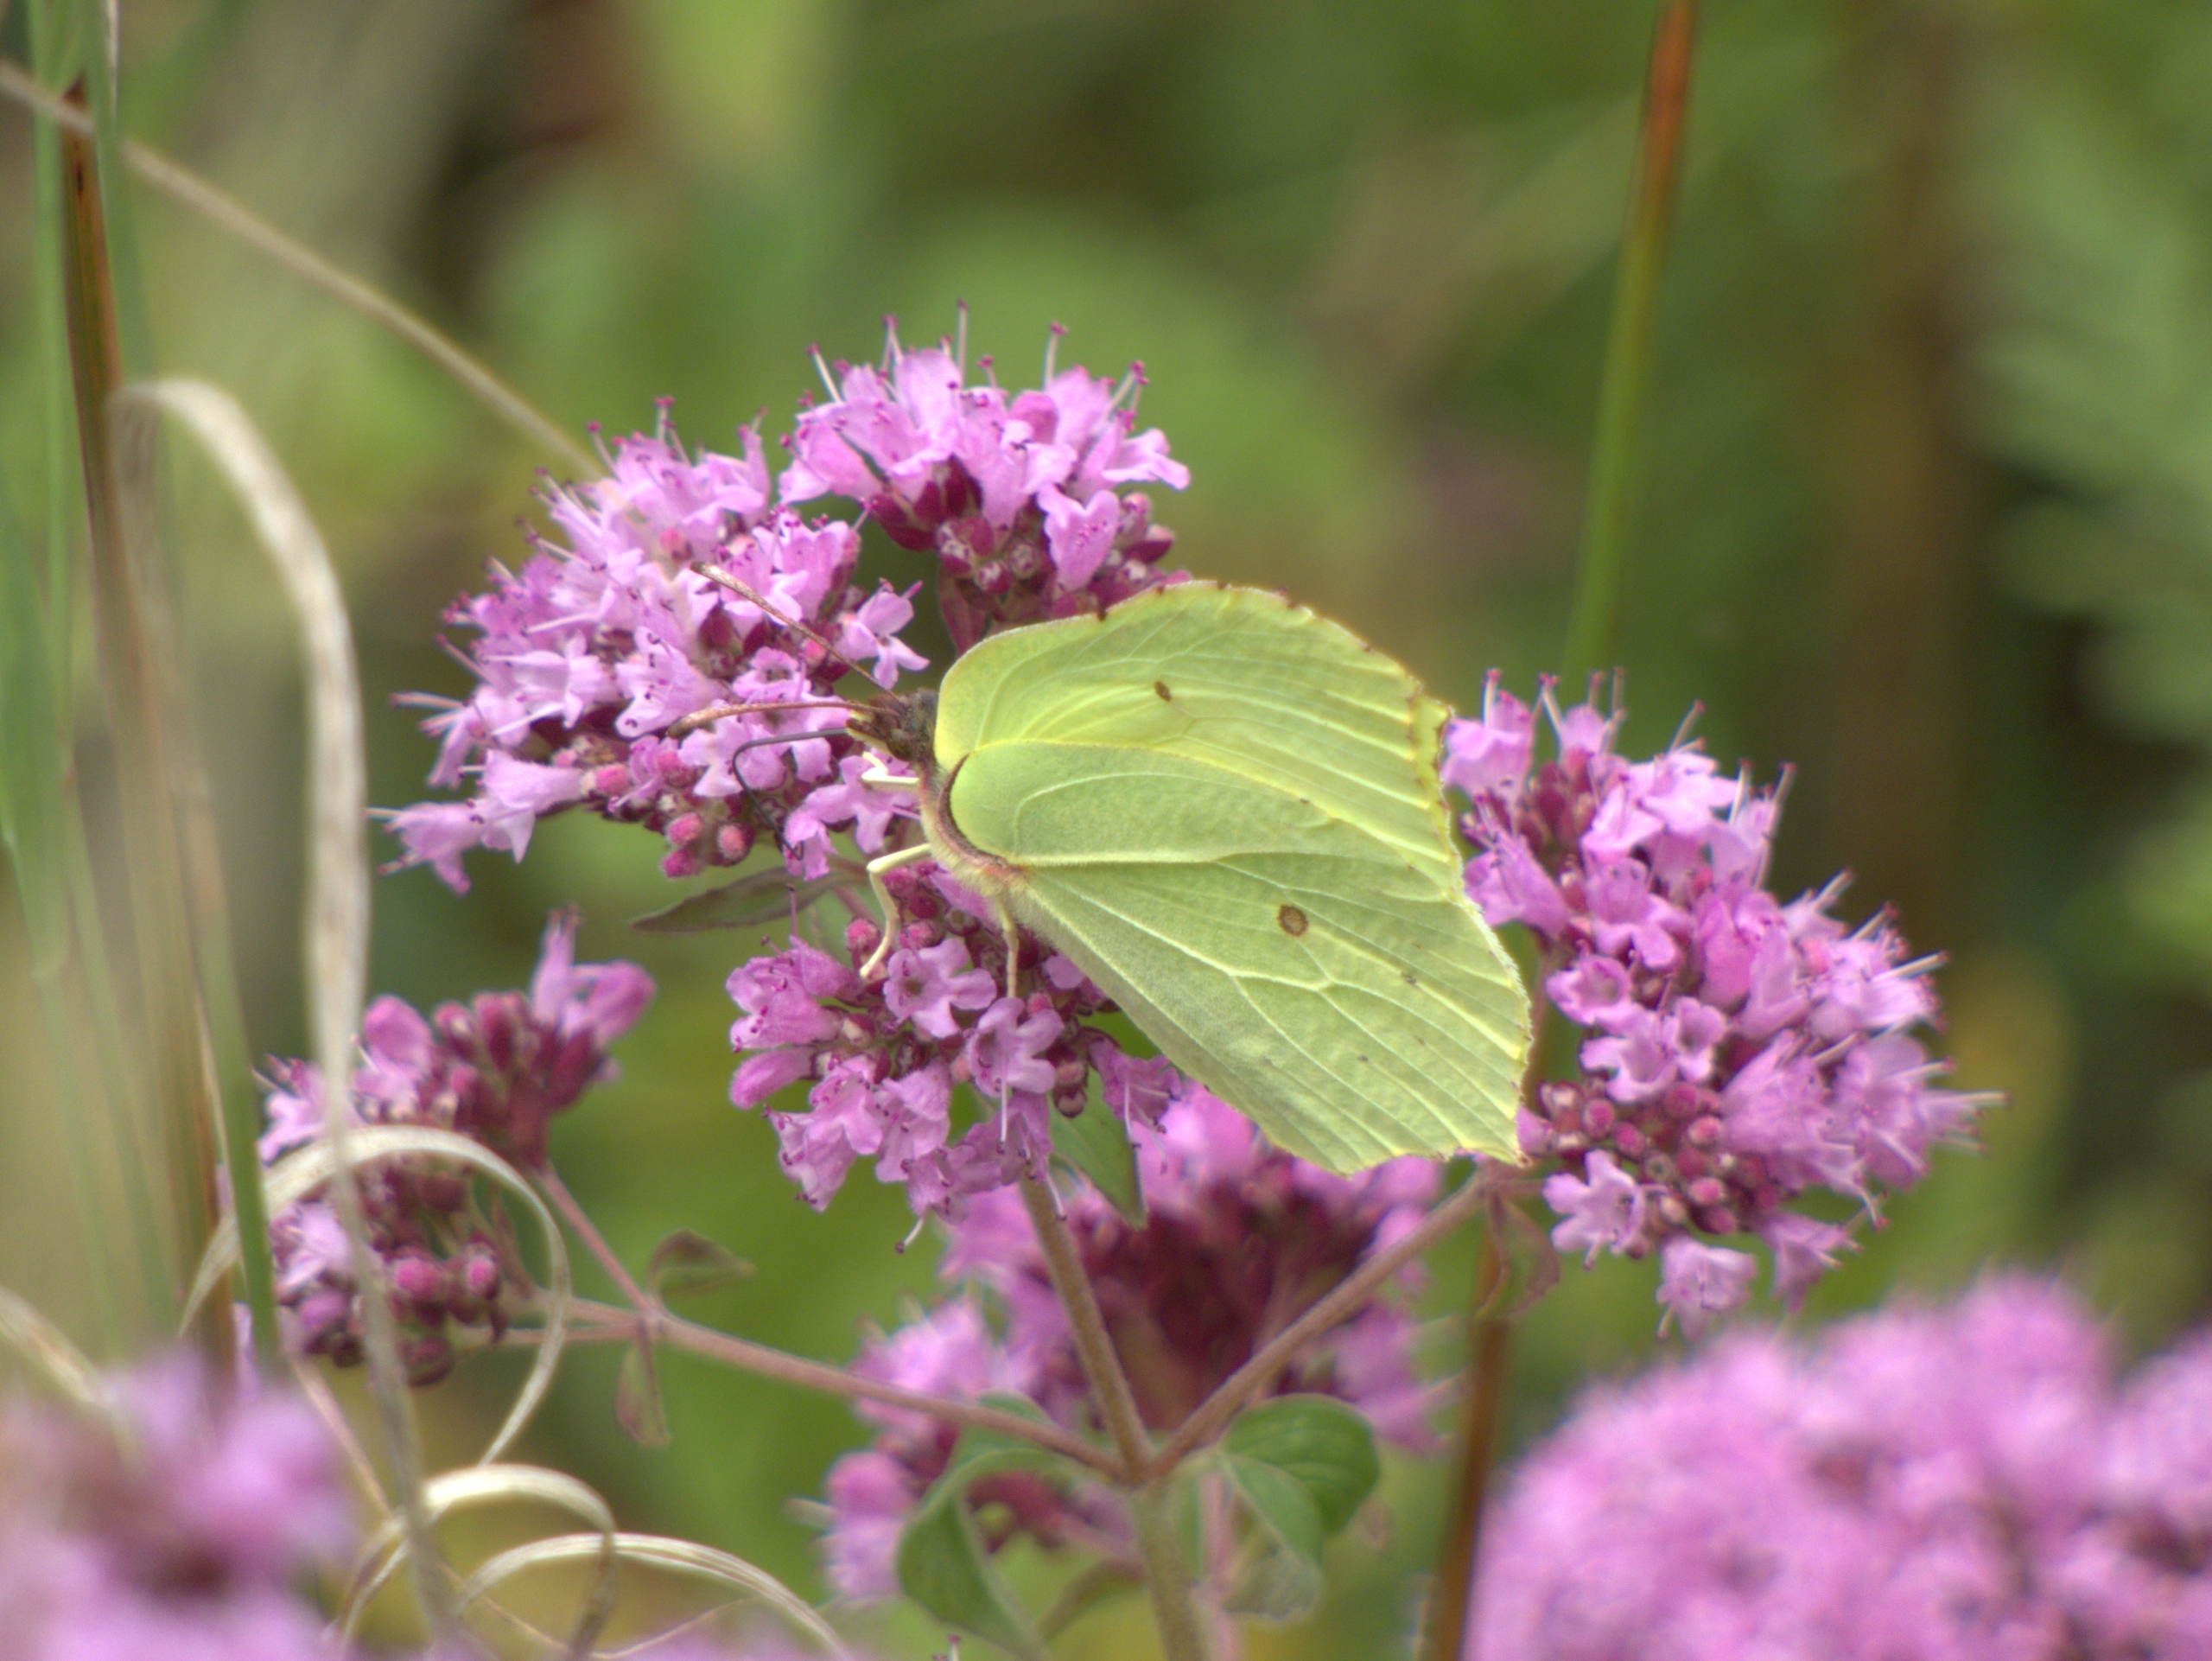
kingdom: Animalia
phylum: Arthropoda
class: Insecta
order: Lepidoptera
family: Pieridae
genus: Gonepteryx
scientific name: Gonepteryx rhamni
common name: Citronsommerfugl
